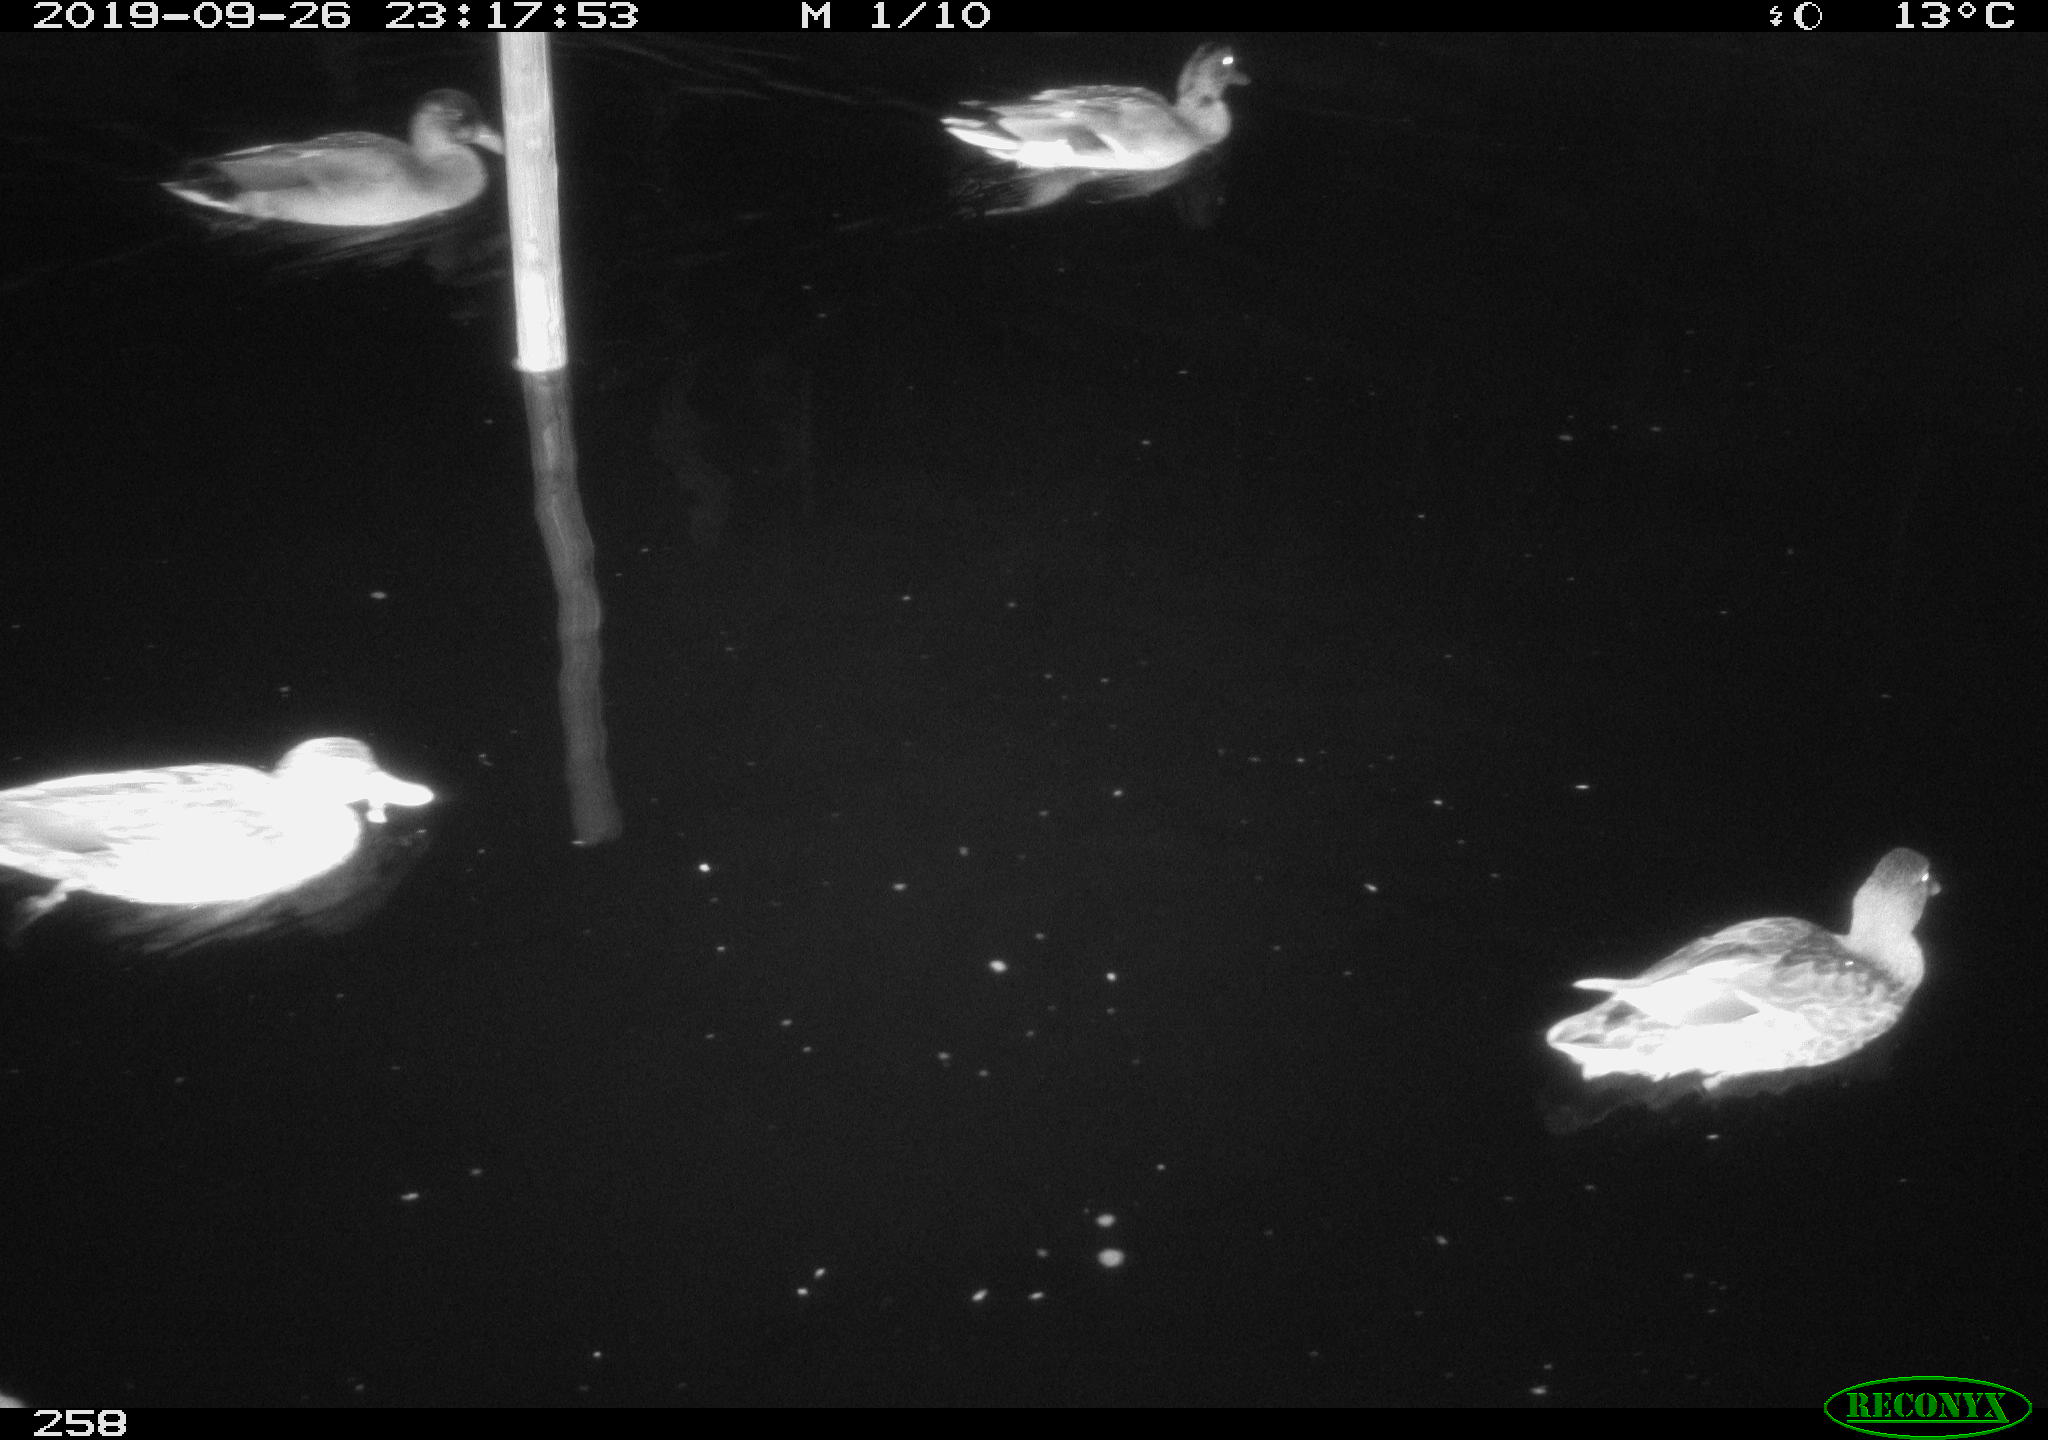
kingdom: Animalia
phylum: Chordata
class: Aves
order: Anseriformes
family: Anatidae
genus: Anas
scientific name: Anas platyrhynchos
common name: Mallard
